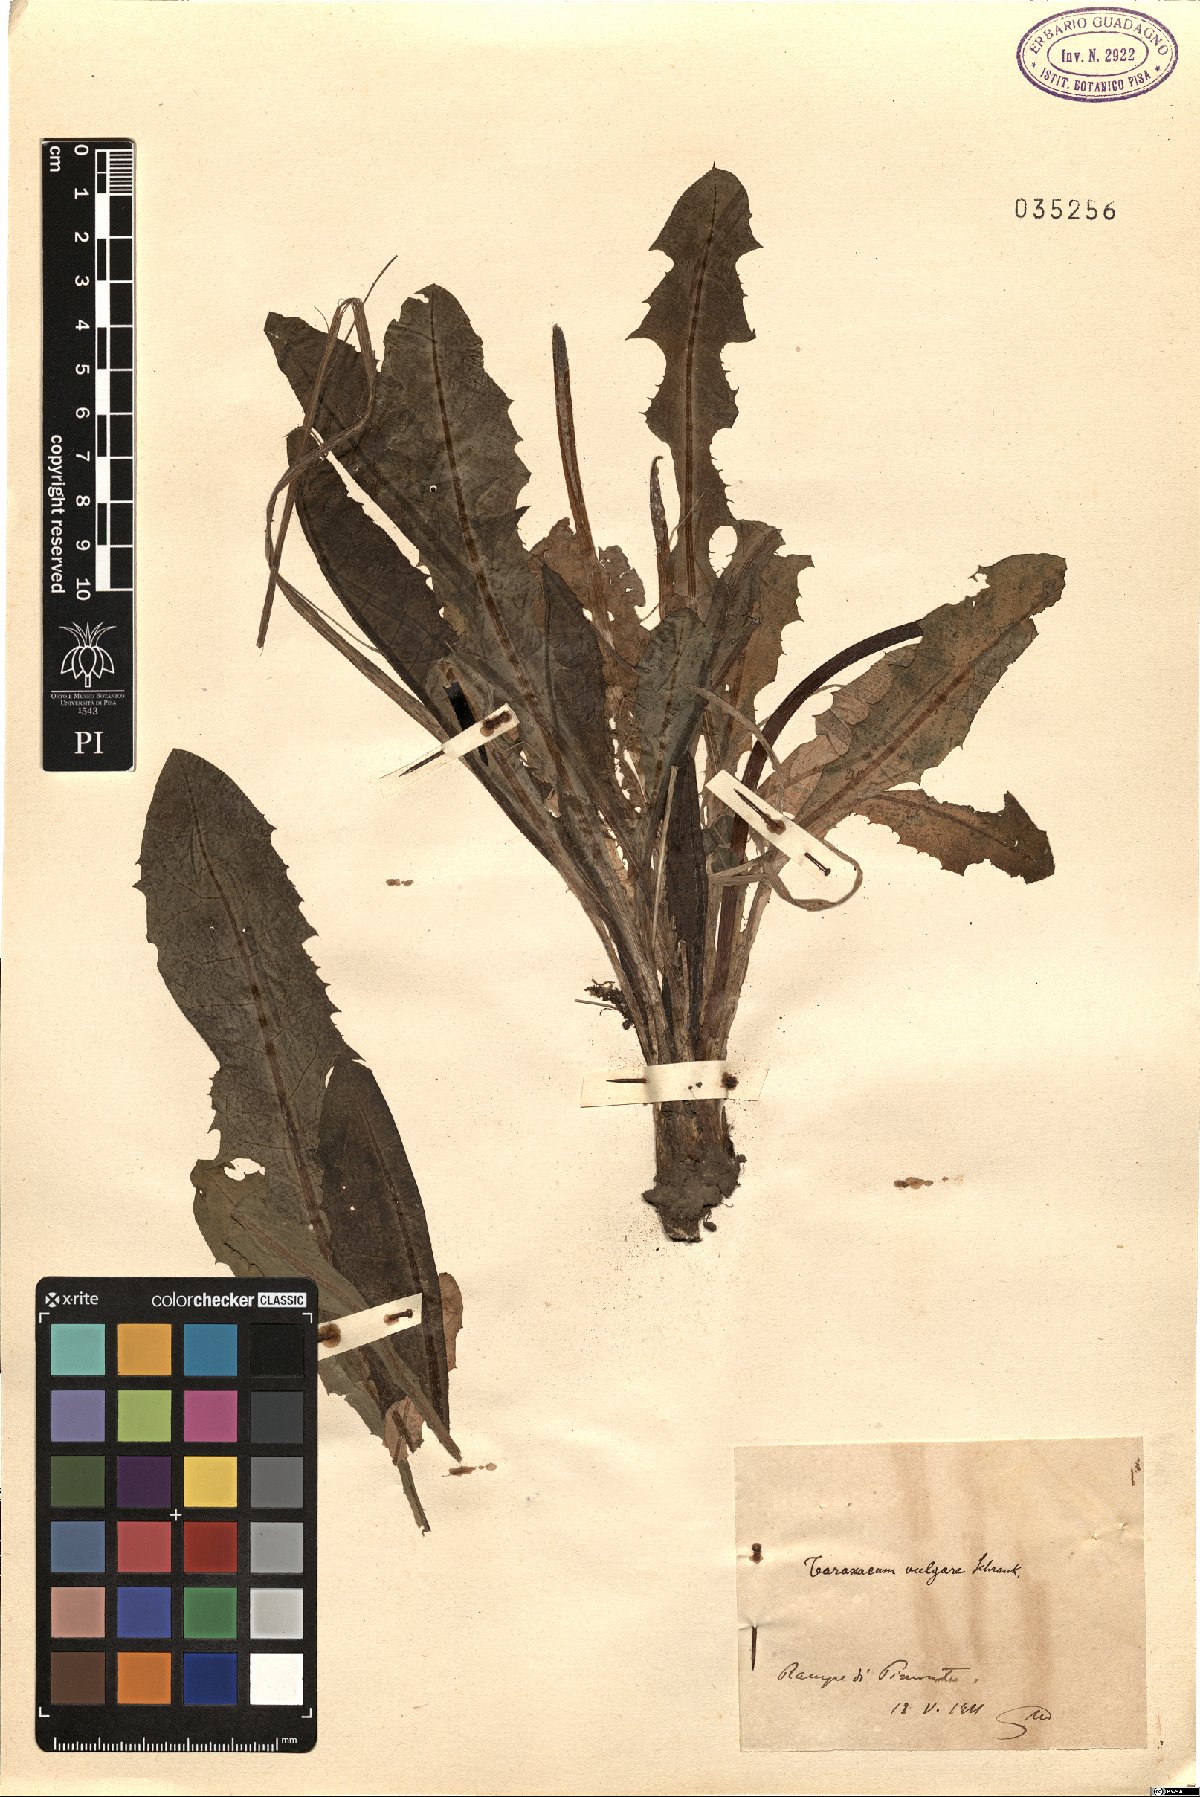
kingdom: Plantae
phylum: Tracheophyta
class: Magnoliopsida
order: Asterales
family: Asteraceae
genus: Taraxacum
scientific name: Taraxacum officinale
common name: Common dandelion
